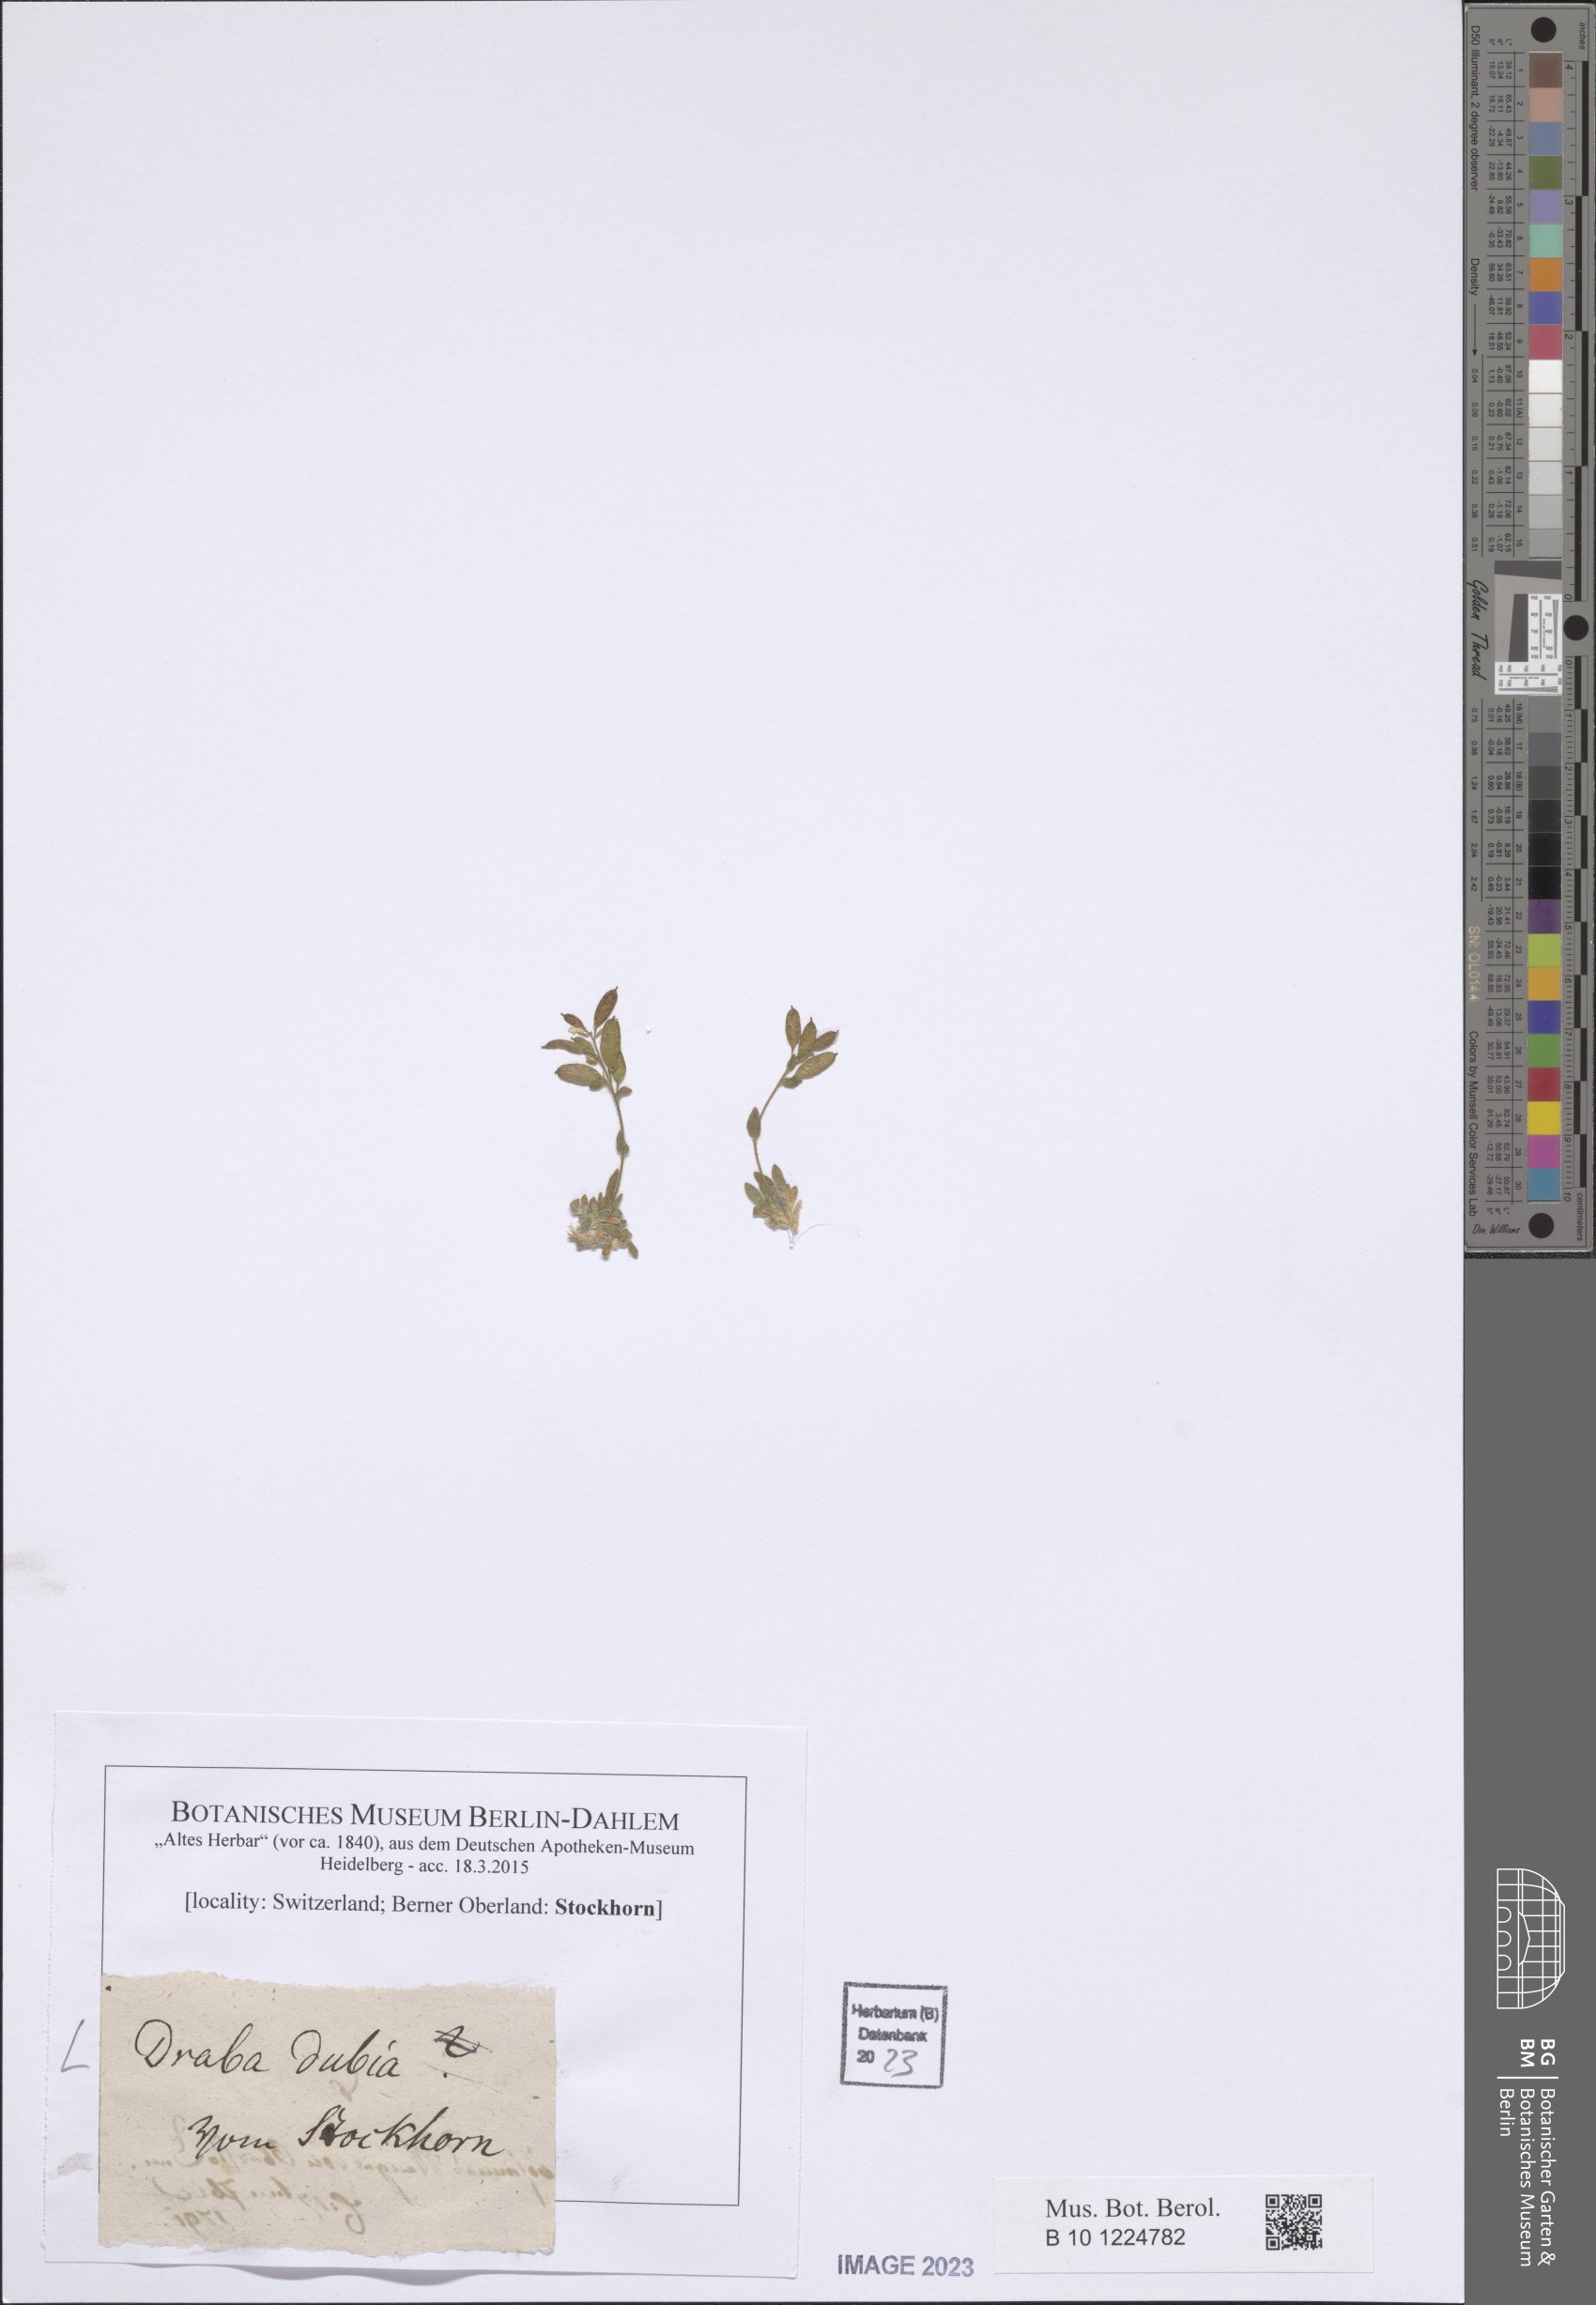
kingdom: Plantae
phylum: Tracheophyta
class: Magnoliopsida
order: Brassicales
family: Brassicaceae
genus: Draba
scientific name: Draba dubia
